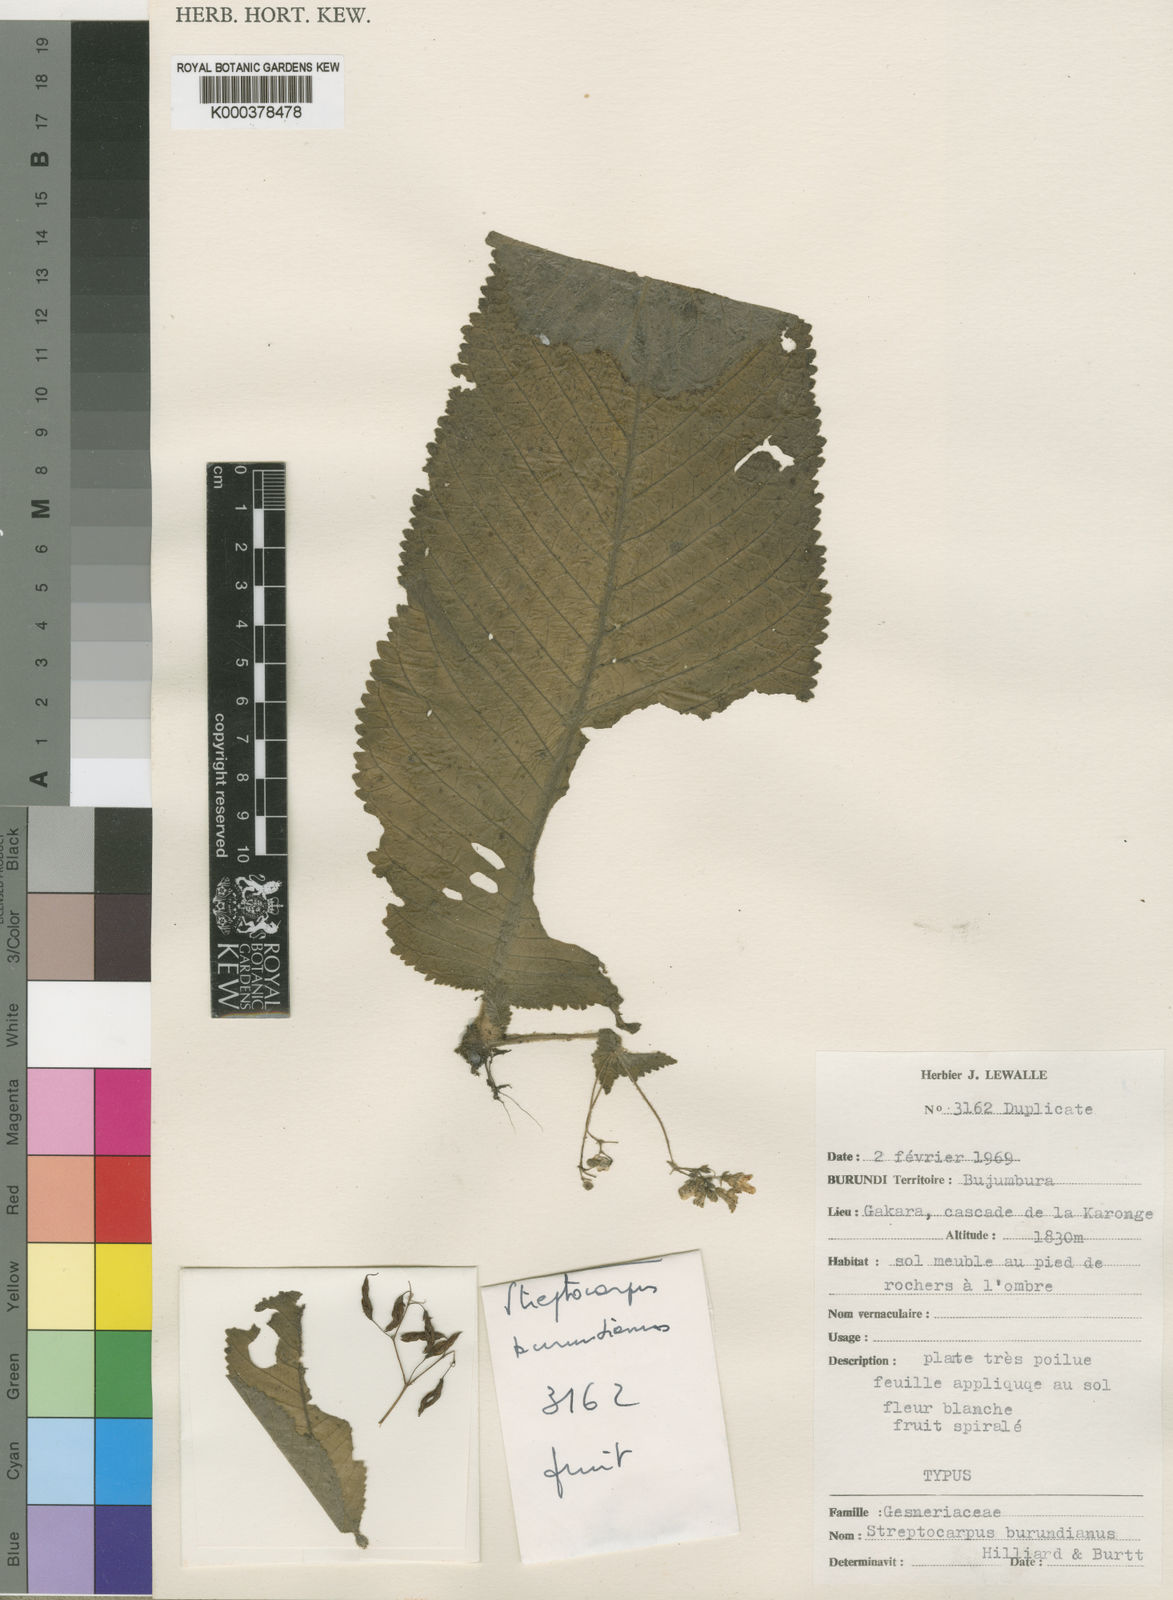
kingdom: Plantae
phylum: Tracheophyta
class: Magnoliopsida
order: Lamiales
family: Gesneriaceae
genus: Streptocarpus
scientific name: Streptocarpus
